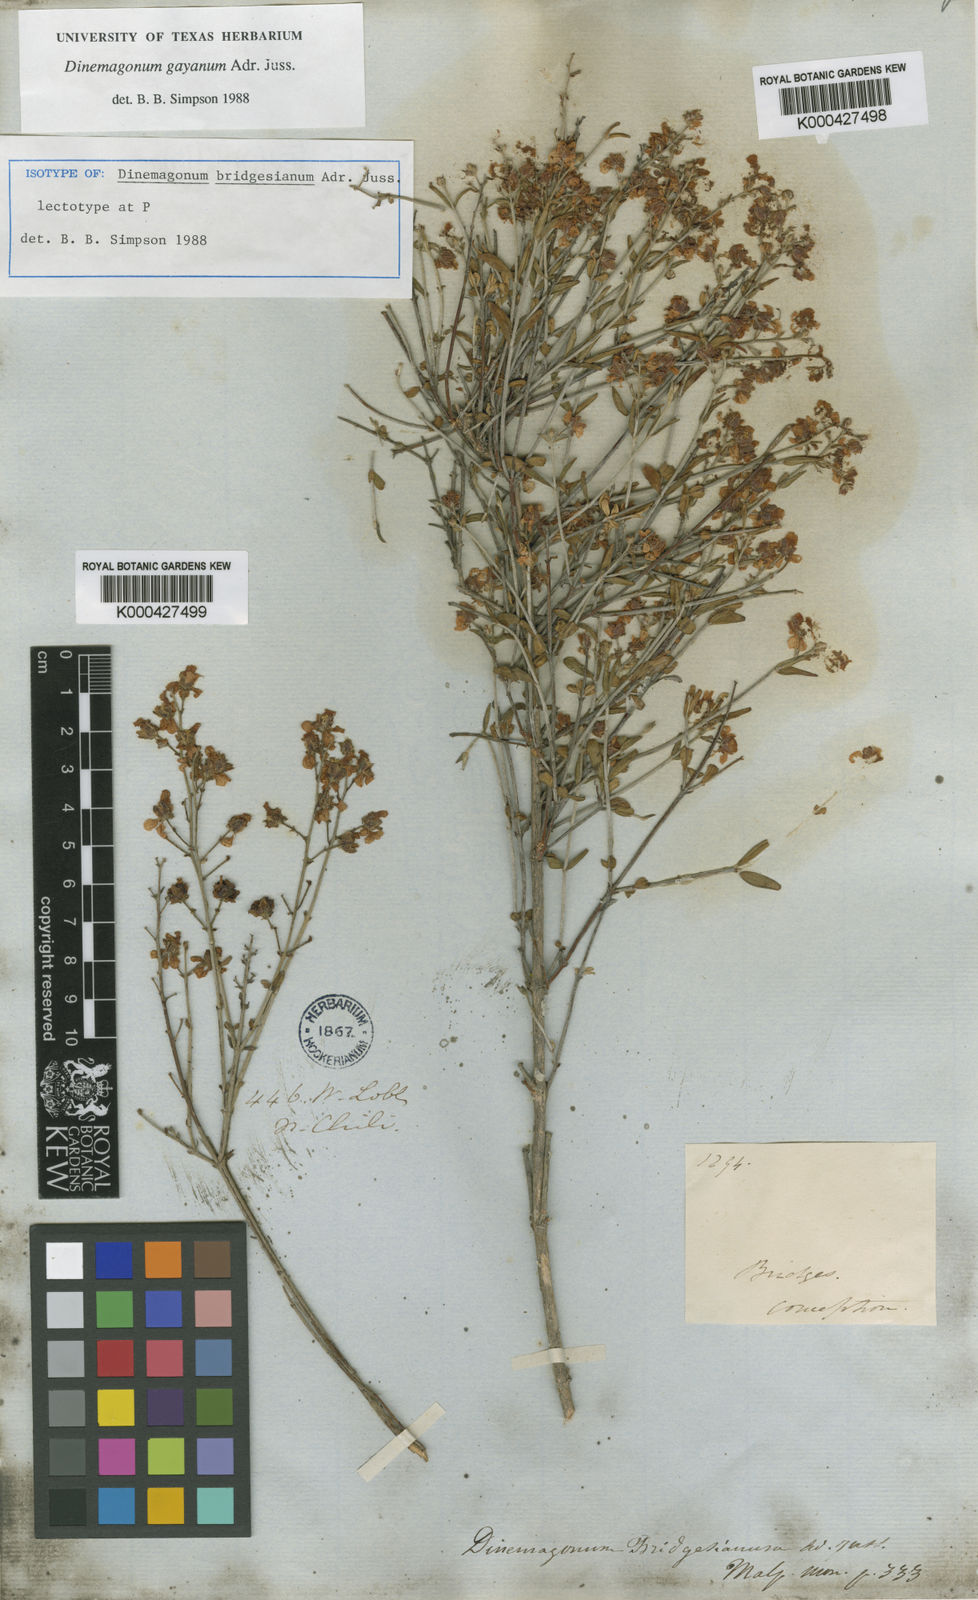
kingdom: Plantae
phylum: Tracheophyta
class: Magnoliopsida
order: Malpighiales
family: Malpighiaceae
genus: Dinemagonum
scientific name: Dinemagonum gayanum
